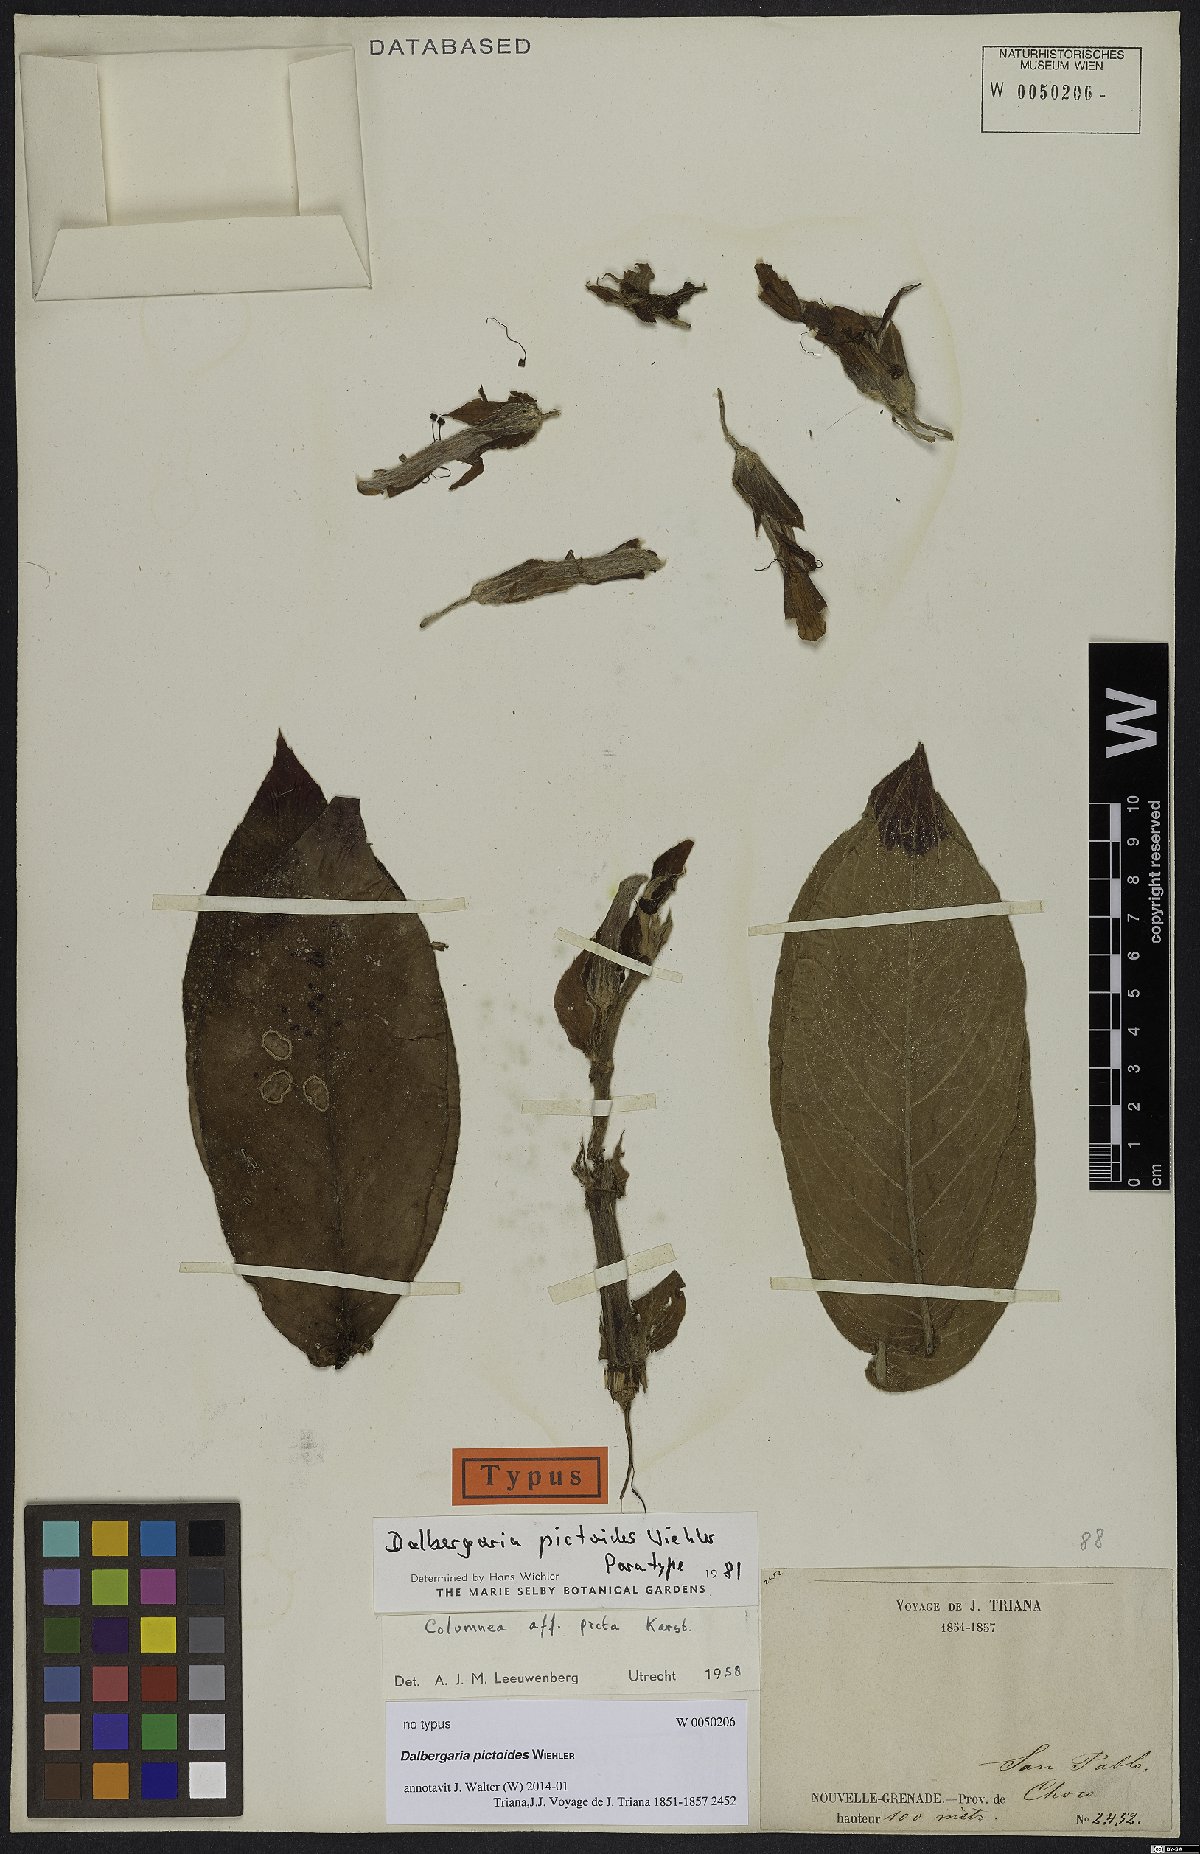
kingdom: Plantae
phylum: Tracheophyta
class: Magnoliopsida
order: Lamiales
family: Gesneriaceae
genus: Columnea
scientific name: Columnea
